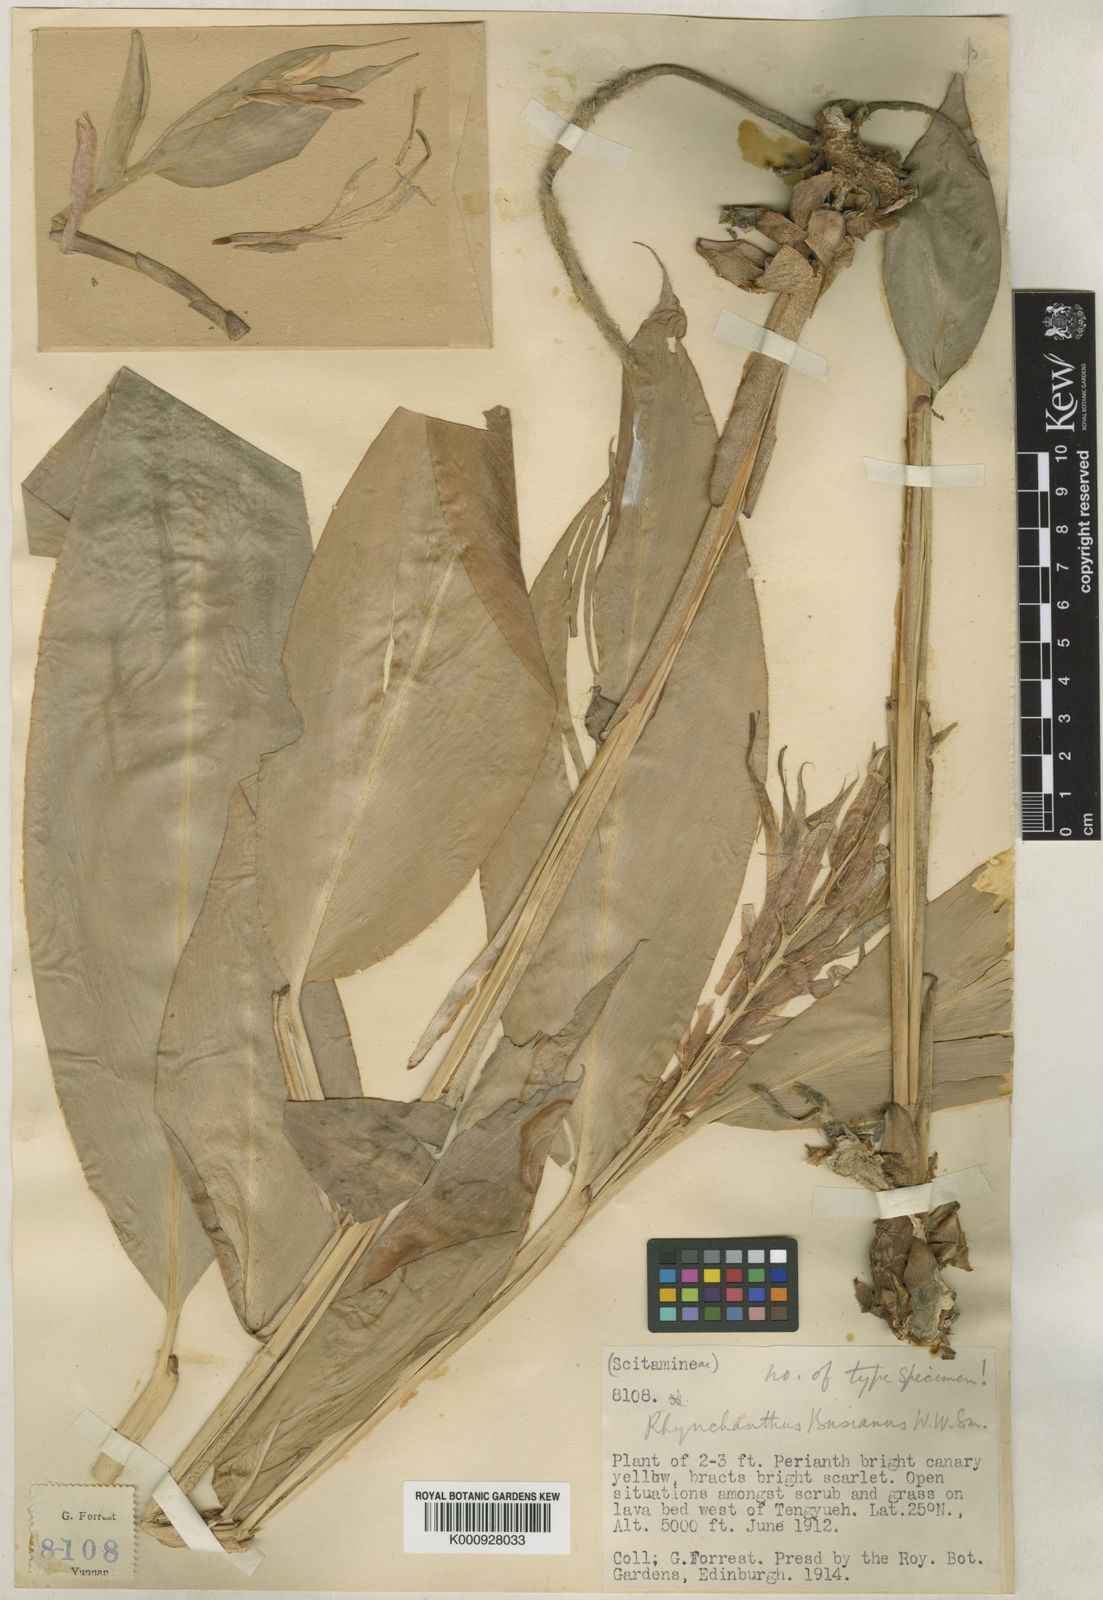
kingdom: Plantae
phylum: Tracheophyta
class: Liliopsida
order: Zingiberales
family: Zingiberaceae
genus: Rhynchanthus
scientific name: Rhynchanthus beesianus
